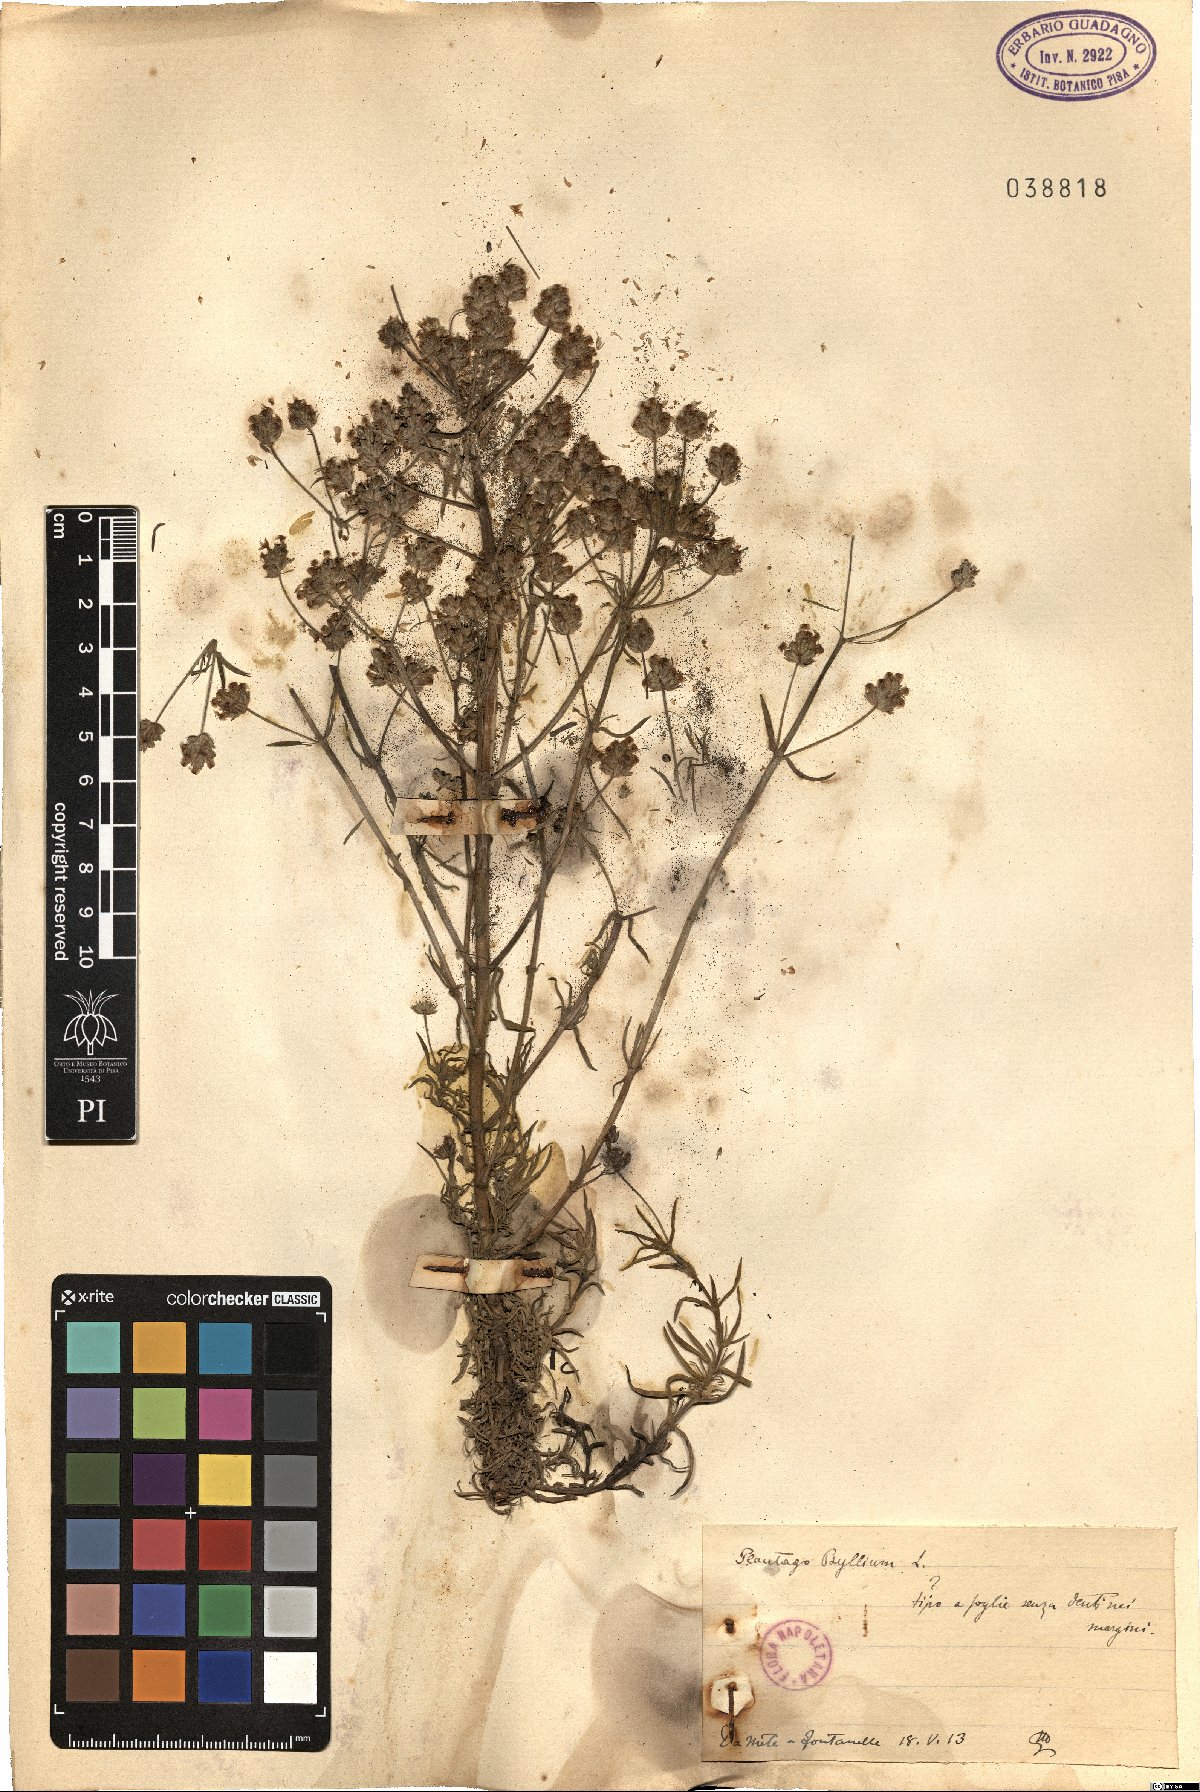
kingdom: Plantae
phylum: Tracheophyta
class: Magnoliopsida
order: Lamiales
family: Plantaginaceae
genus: Plantago
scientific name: Plantago
